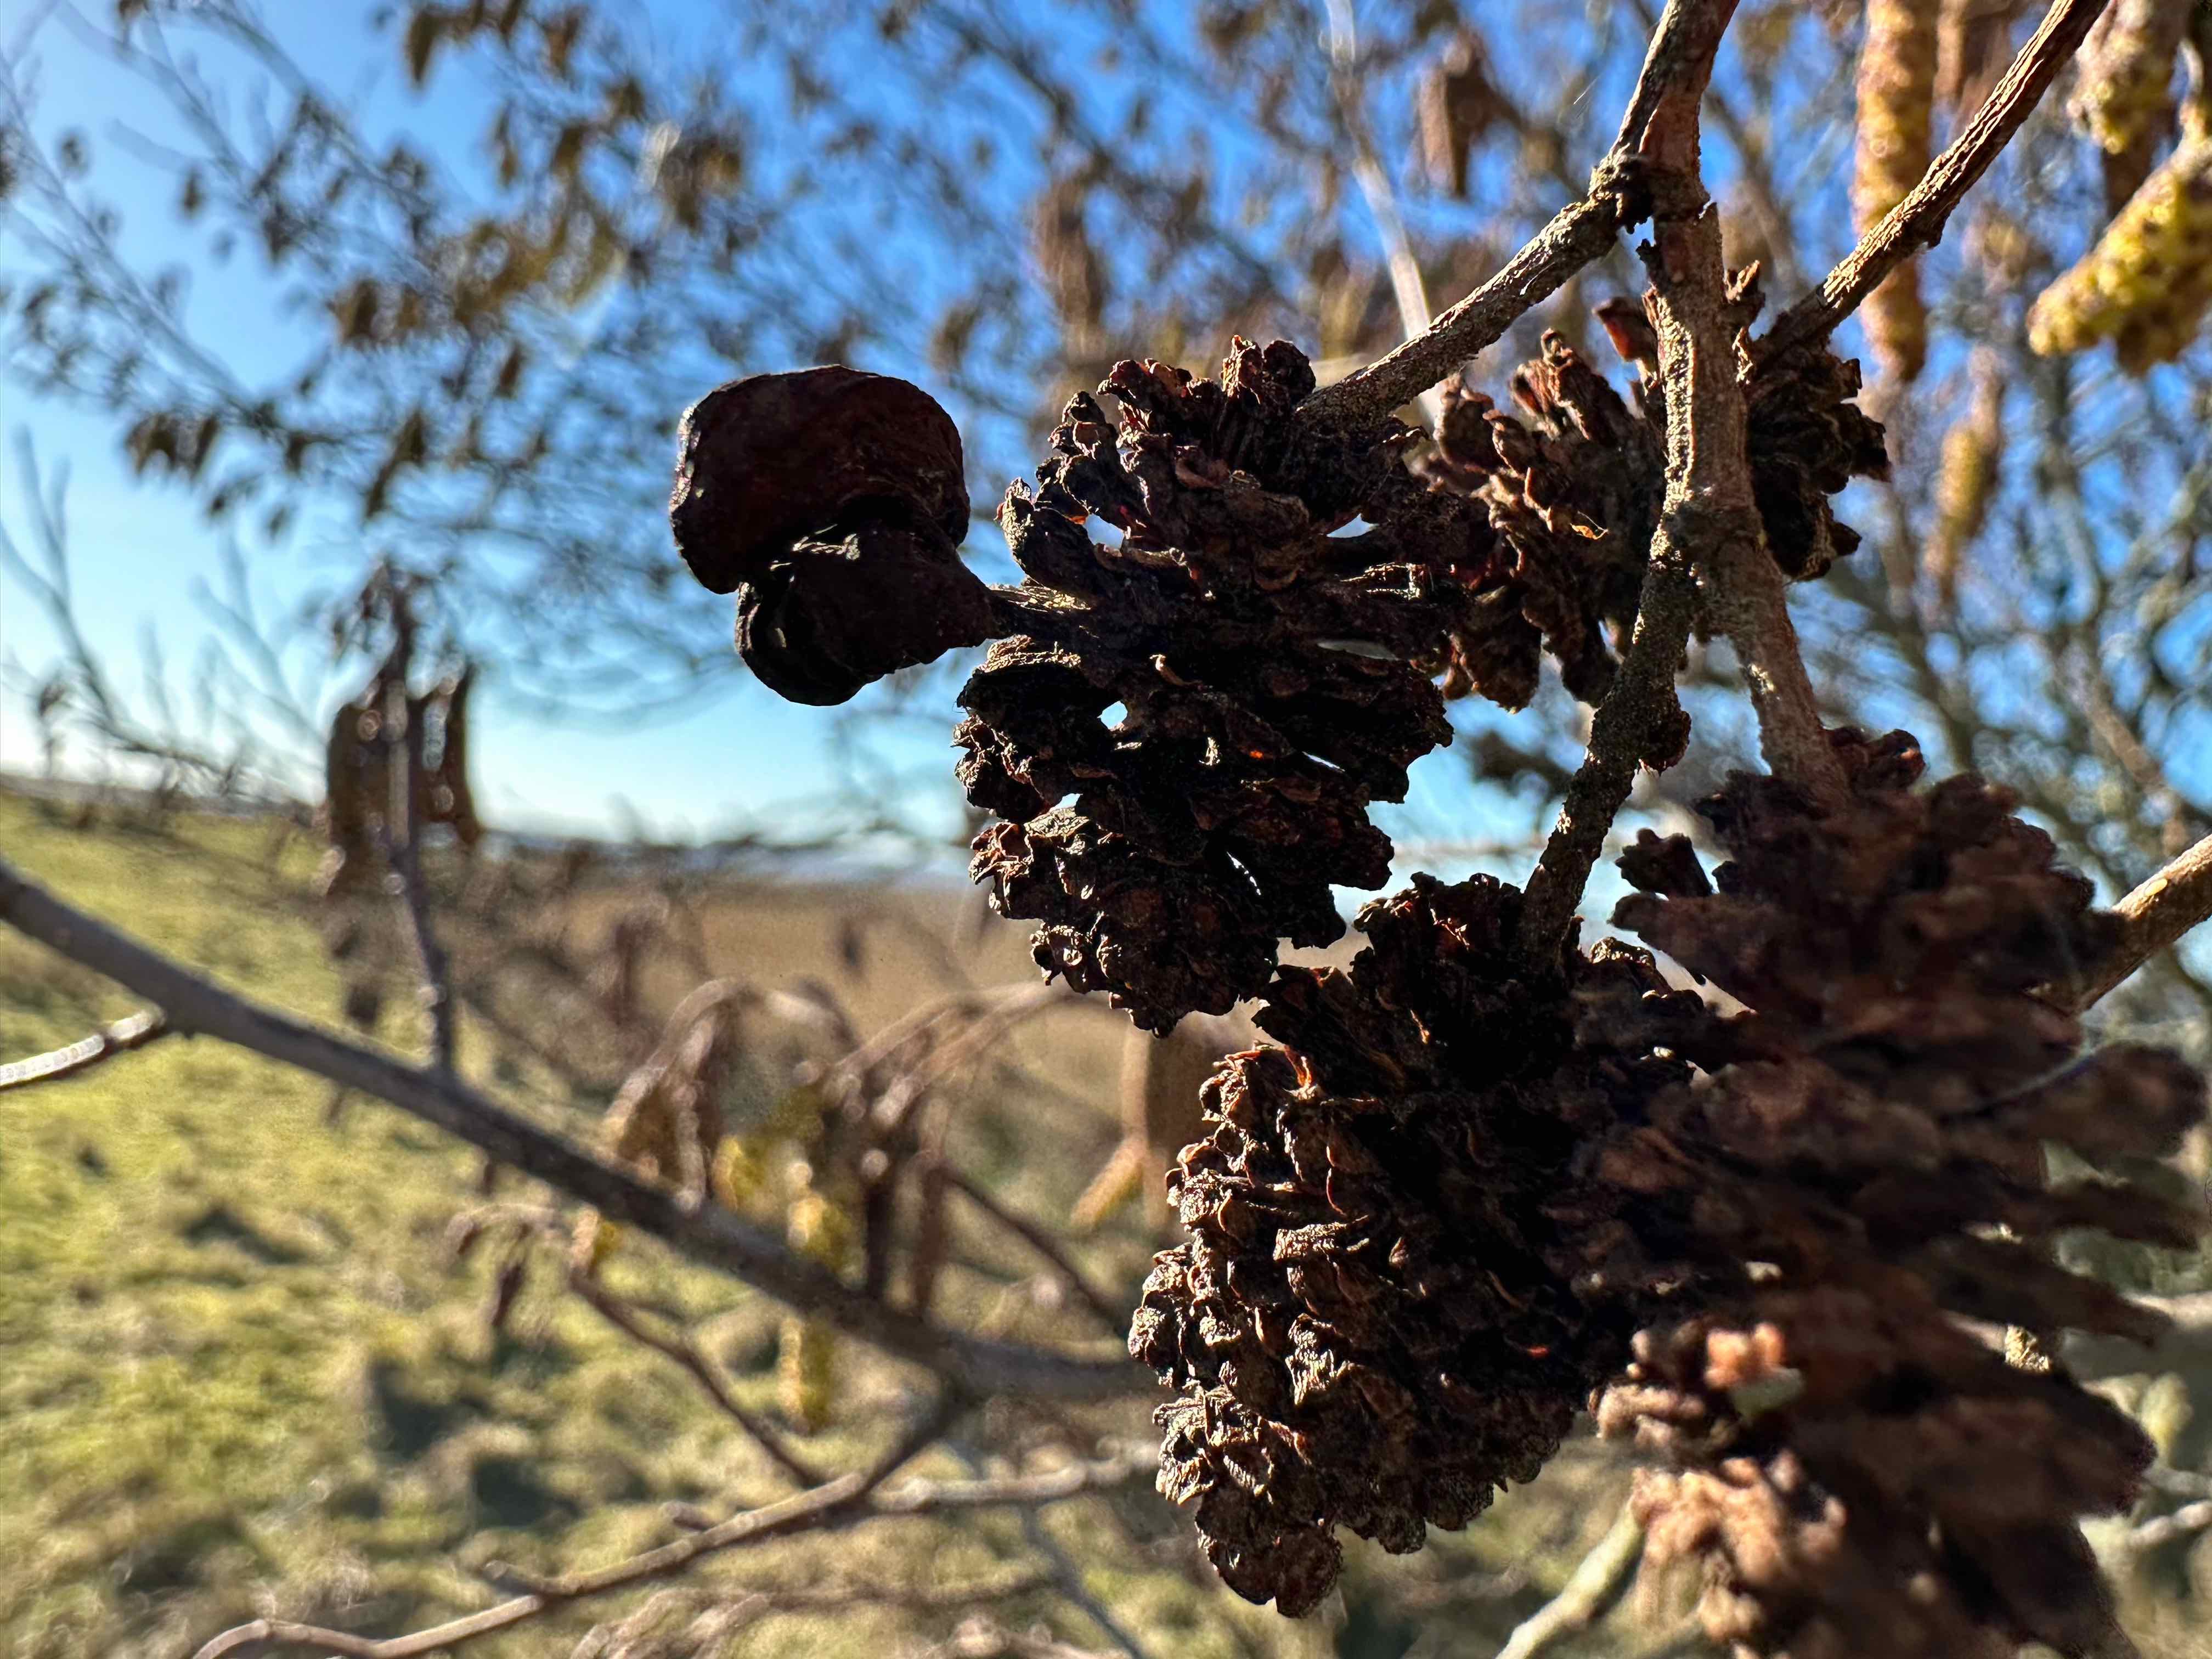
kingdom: Fungi
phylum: Ascomycota
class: Taphrinomycetes
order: Taphrinales
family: Taphrinaceae
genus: Taphrina
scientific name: Taphrina alni
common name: Alder tongue
